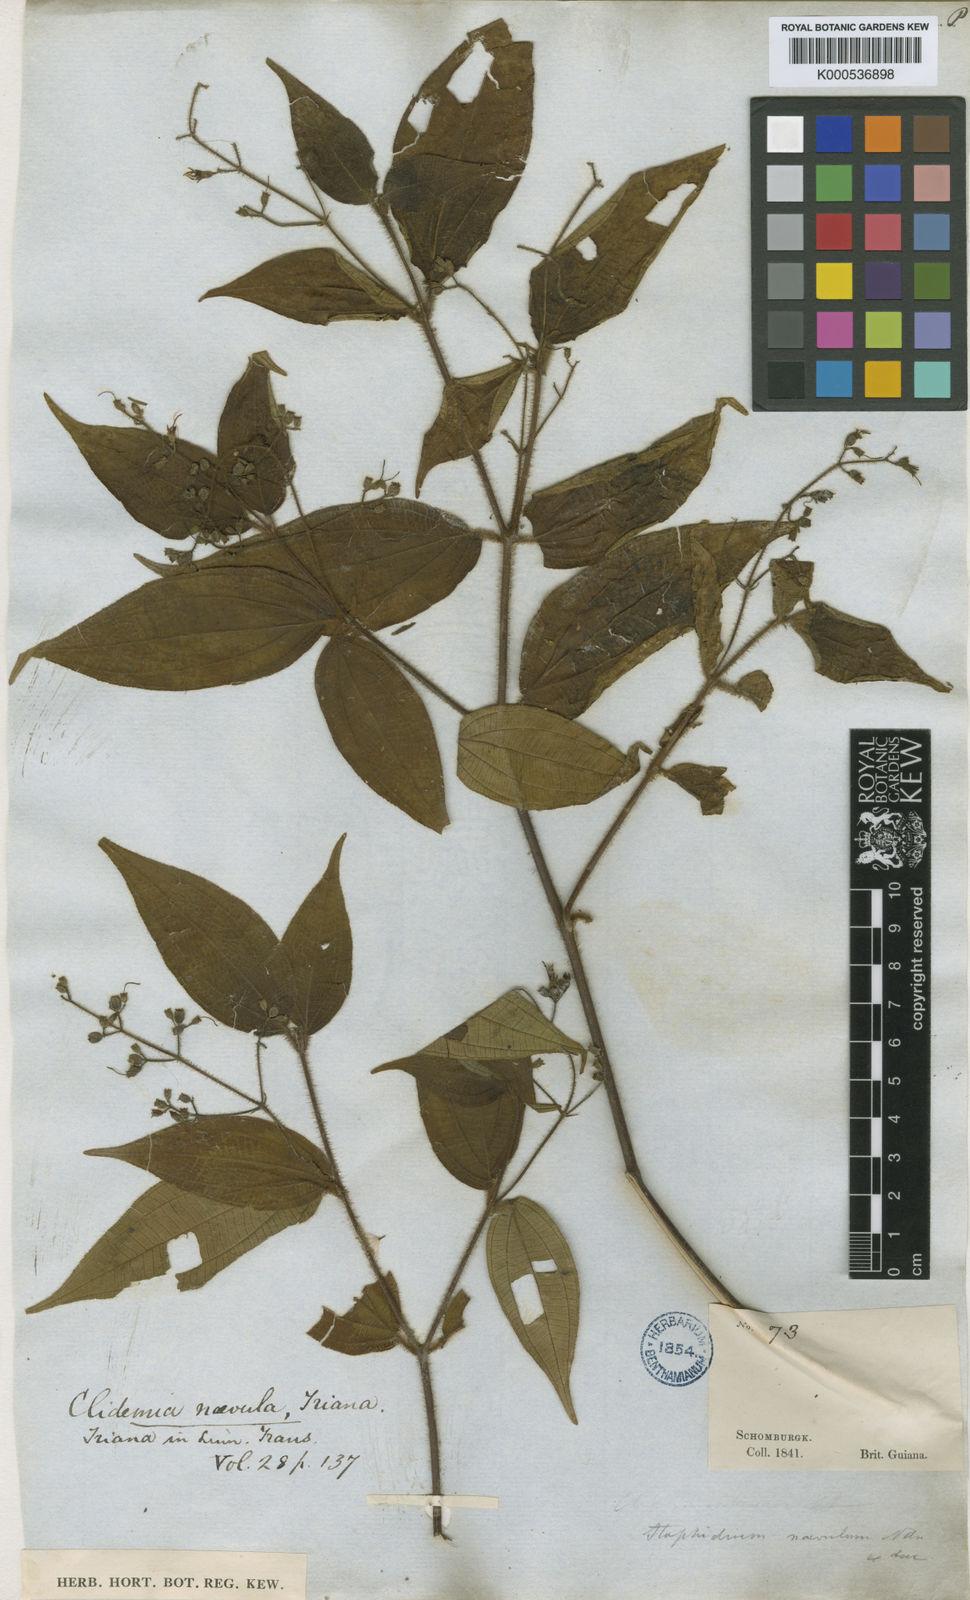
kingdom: Plantae
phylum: Tracheophyta
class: Magnoliopsida
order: Myrtales
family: Melastomataceae
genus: Miconia
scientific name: Miconia heteroclita
